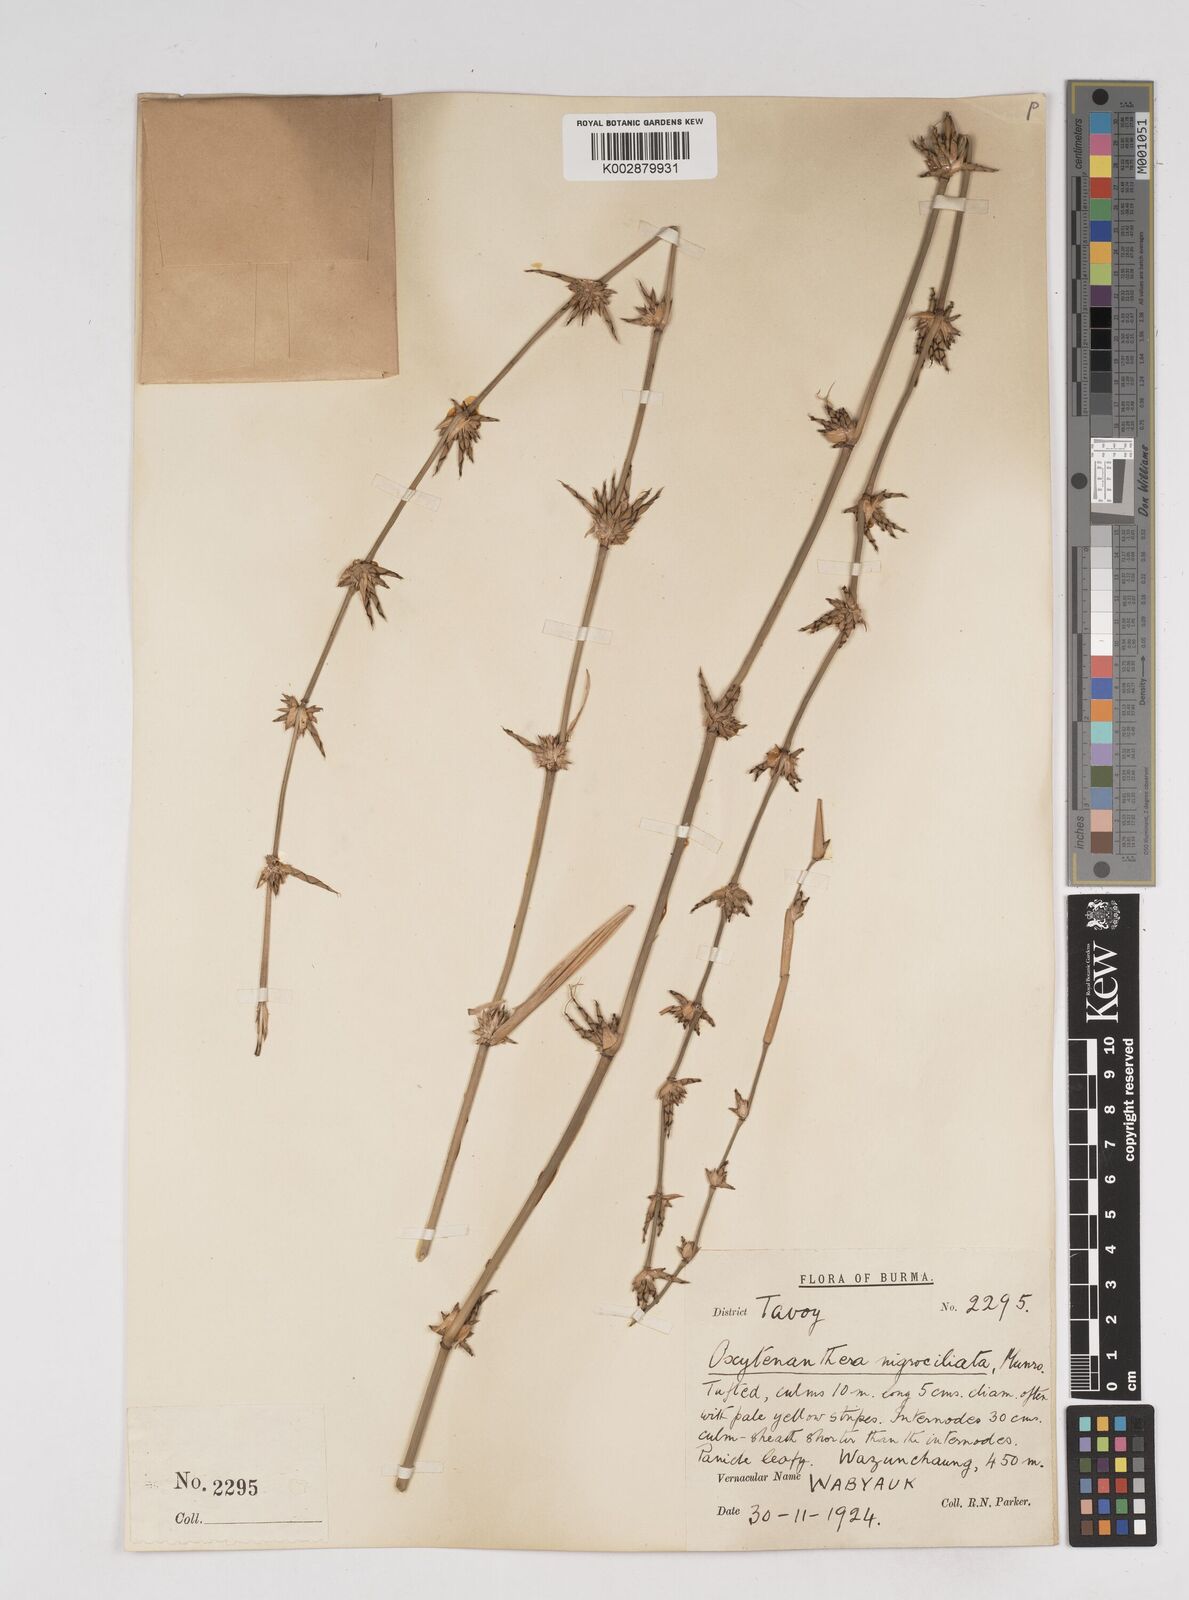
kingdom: Plantae
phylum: Tracheophyta
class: Liliopsida
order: Poales
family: Poaceae
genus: Gigantochloa
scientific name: Gigantochloa nigrociliata
